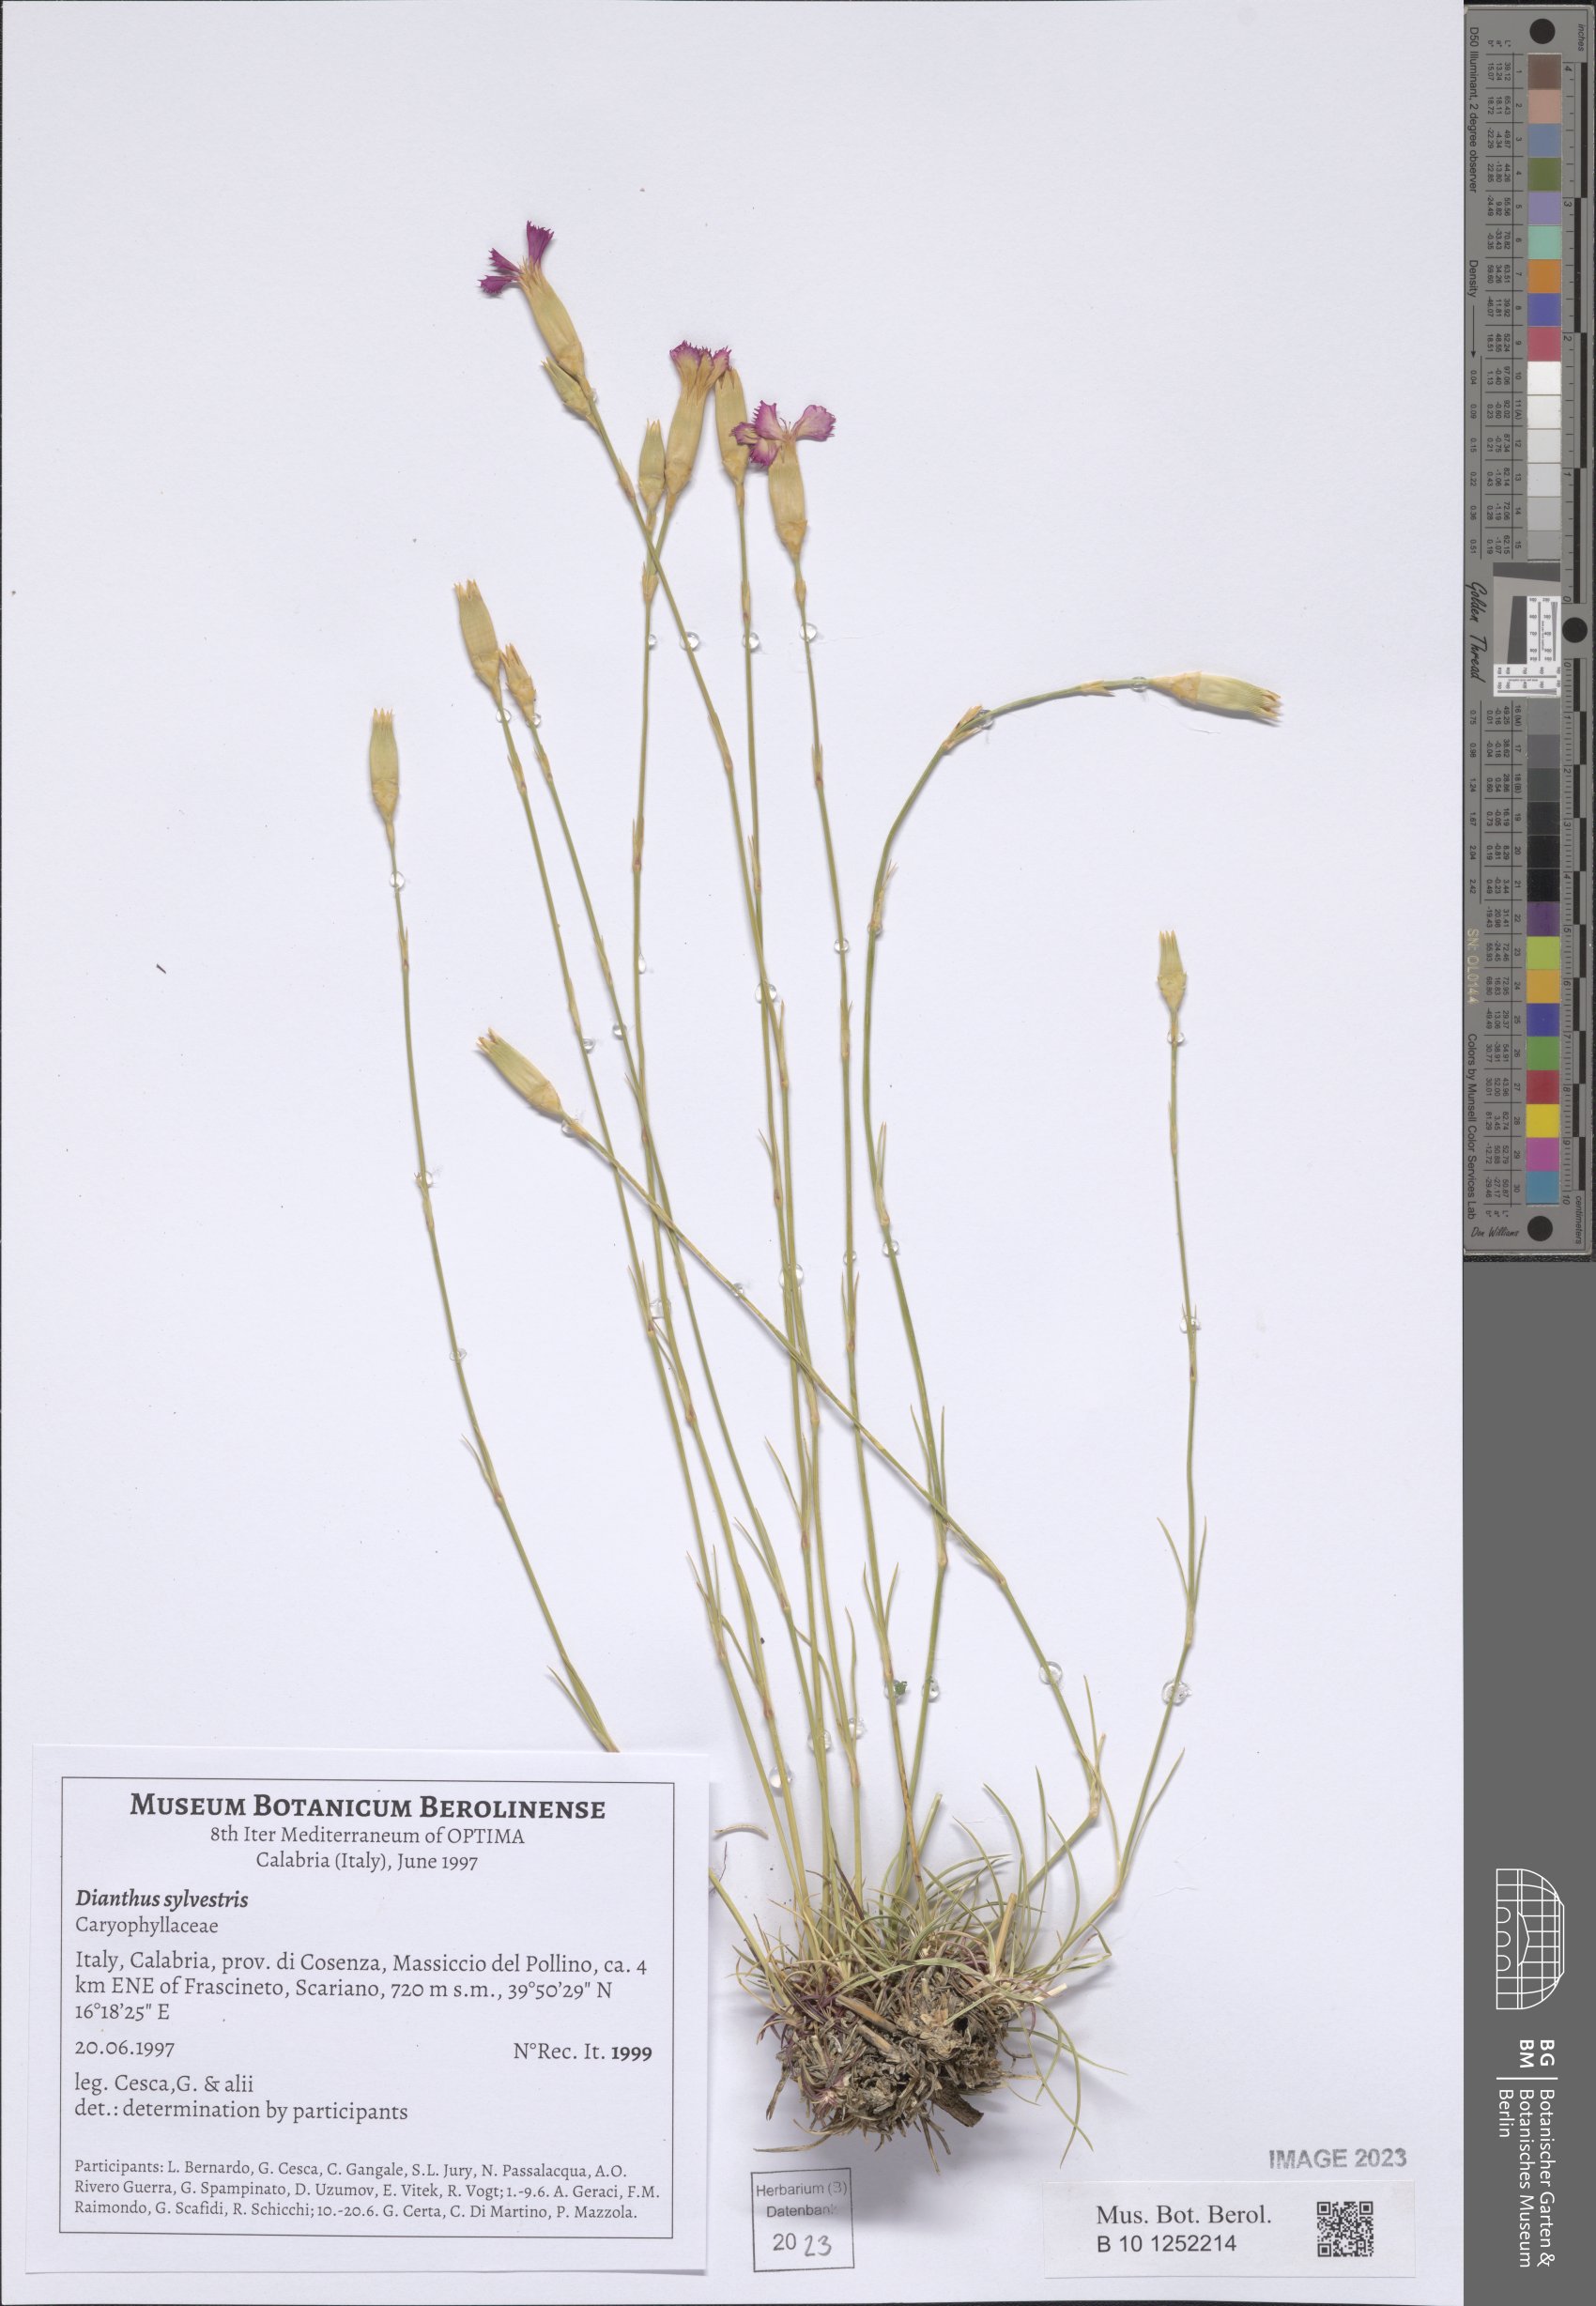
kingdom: Plantae
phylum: Tracheophyta
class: Magnoliopsida
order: Caryophyllales
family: Caryophyllaceae
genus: Dianthus
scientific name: Dianthus sylvestris
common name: Wood pink
